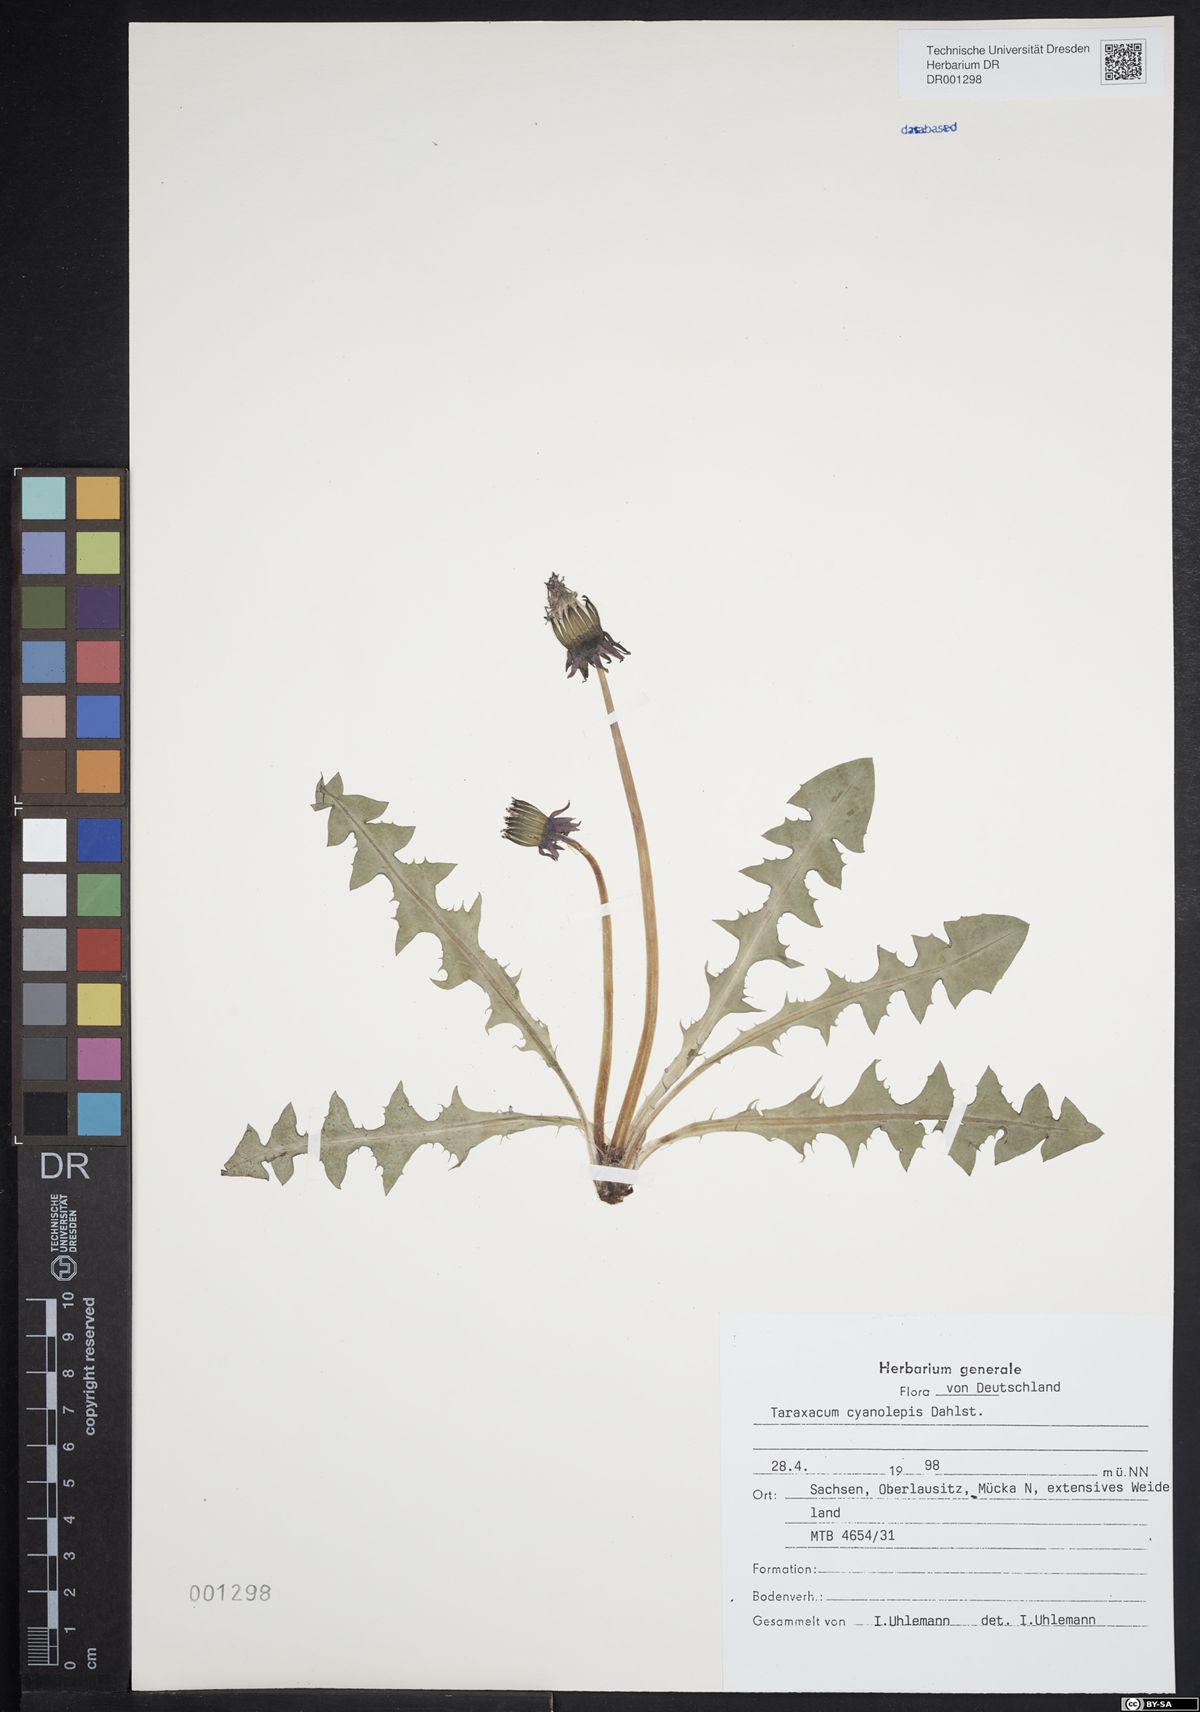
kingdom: Plantae
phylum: Tracheophyta
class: Magnoliopsida
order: Asterales
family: Asteraceae
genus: Taraxacum
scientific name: Taraxacum cyanolepis
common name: Bluish-bracted dandelion
